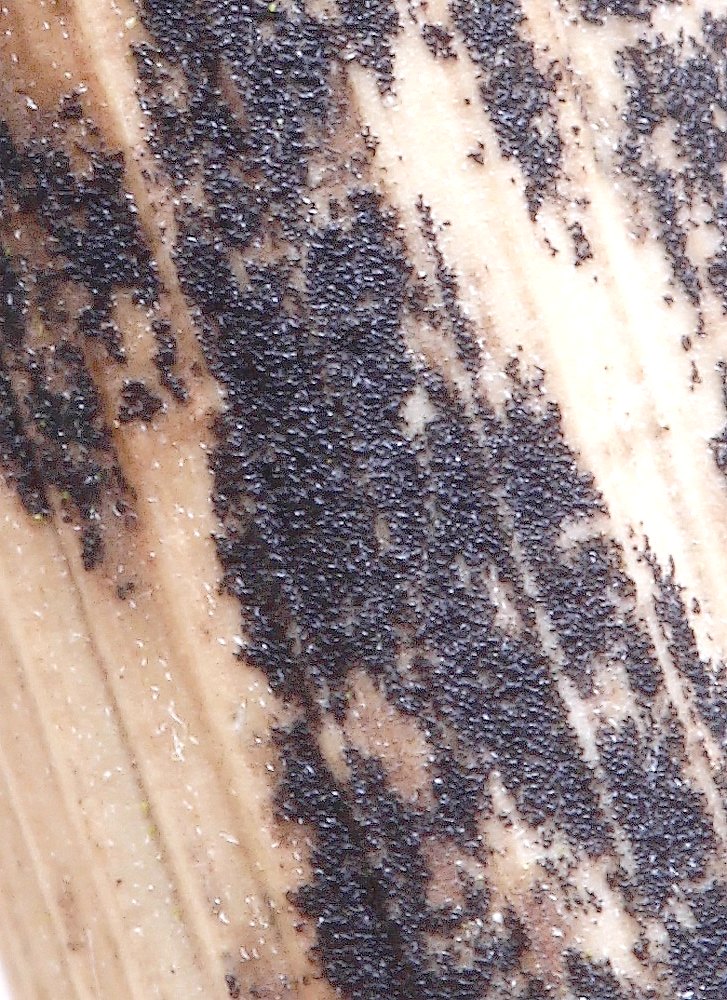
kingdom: Fungi
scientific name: Fungi
